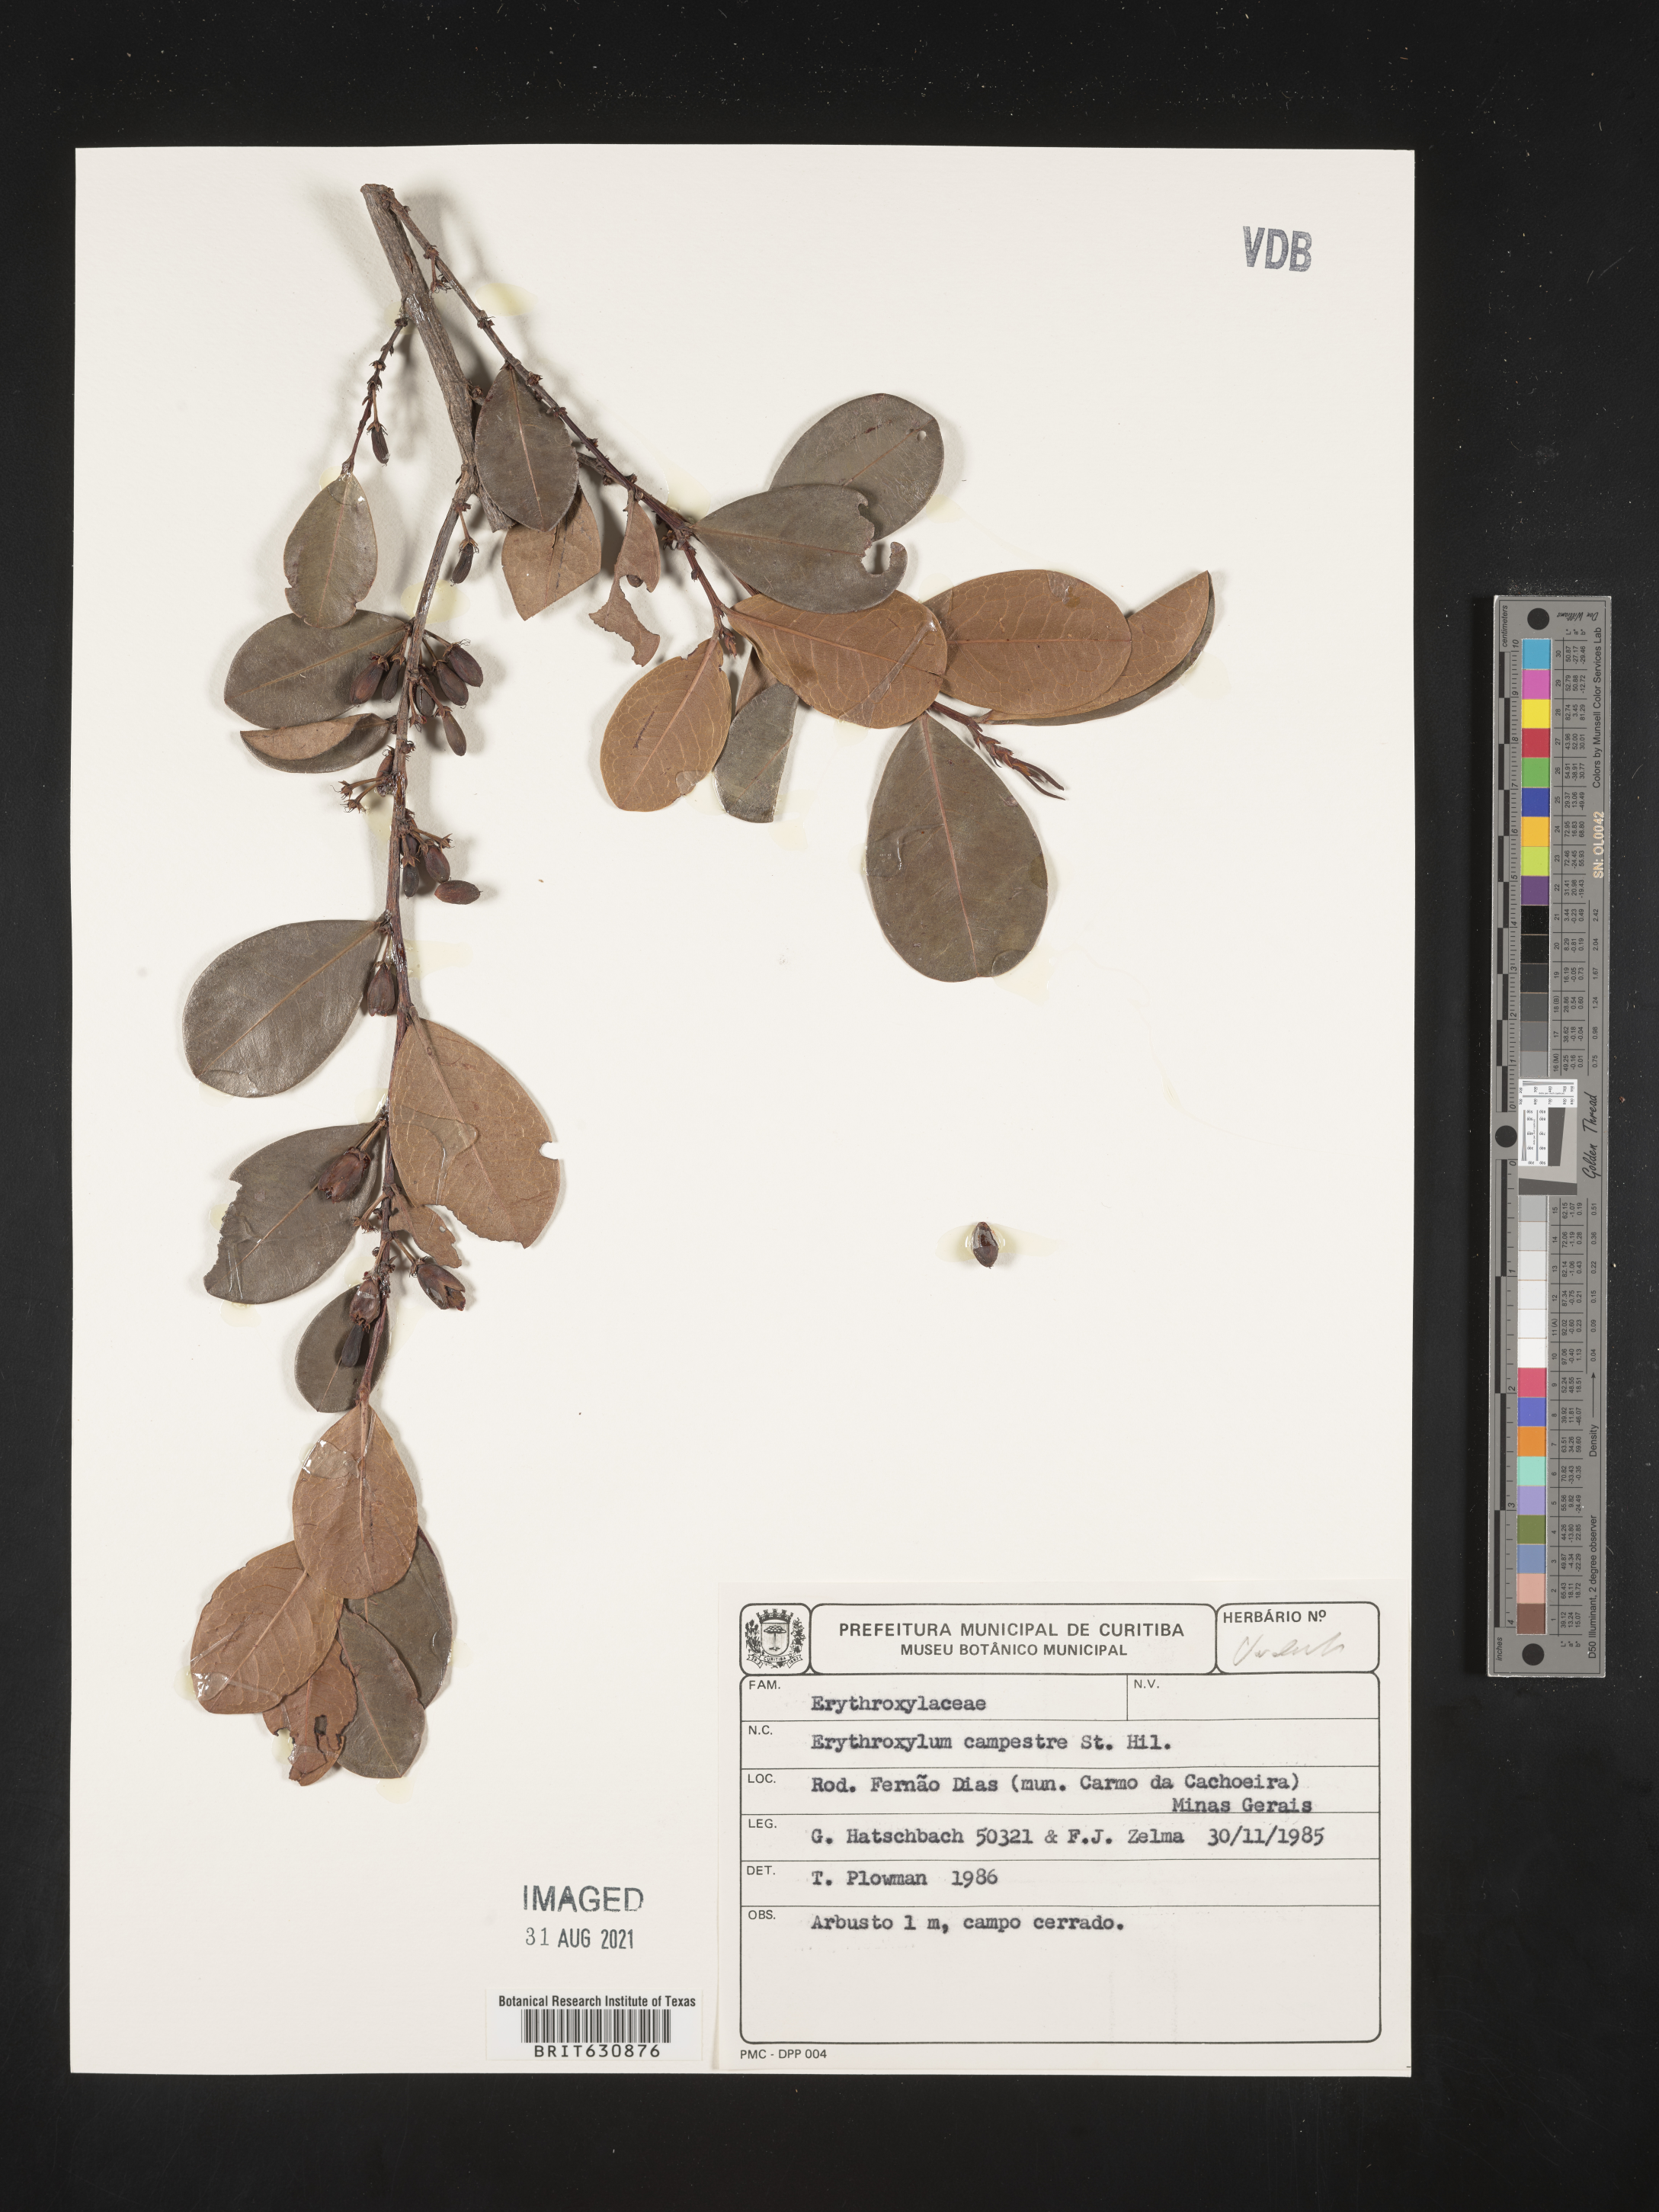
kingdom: Plantae
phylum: Tracheophyta
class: Magnoliopsida
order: Malpighiales
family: Erythroxylaceae
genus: Erythroxylum
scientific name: Erythroxylum
